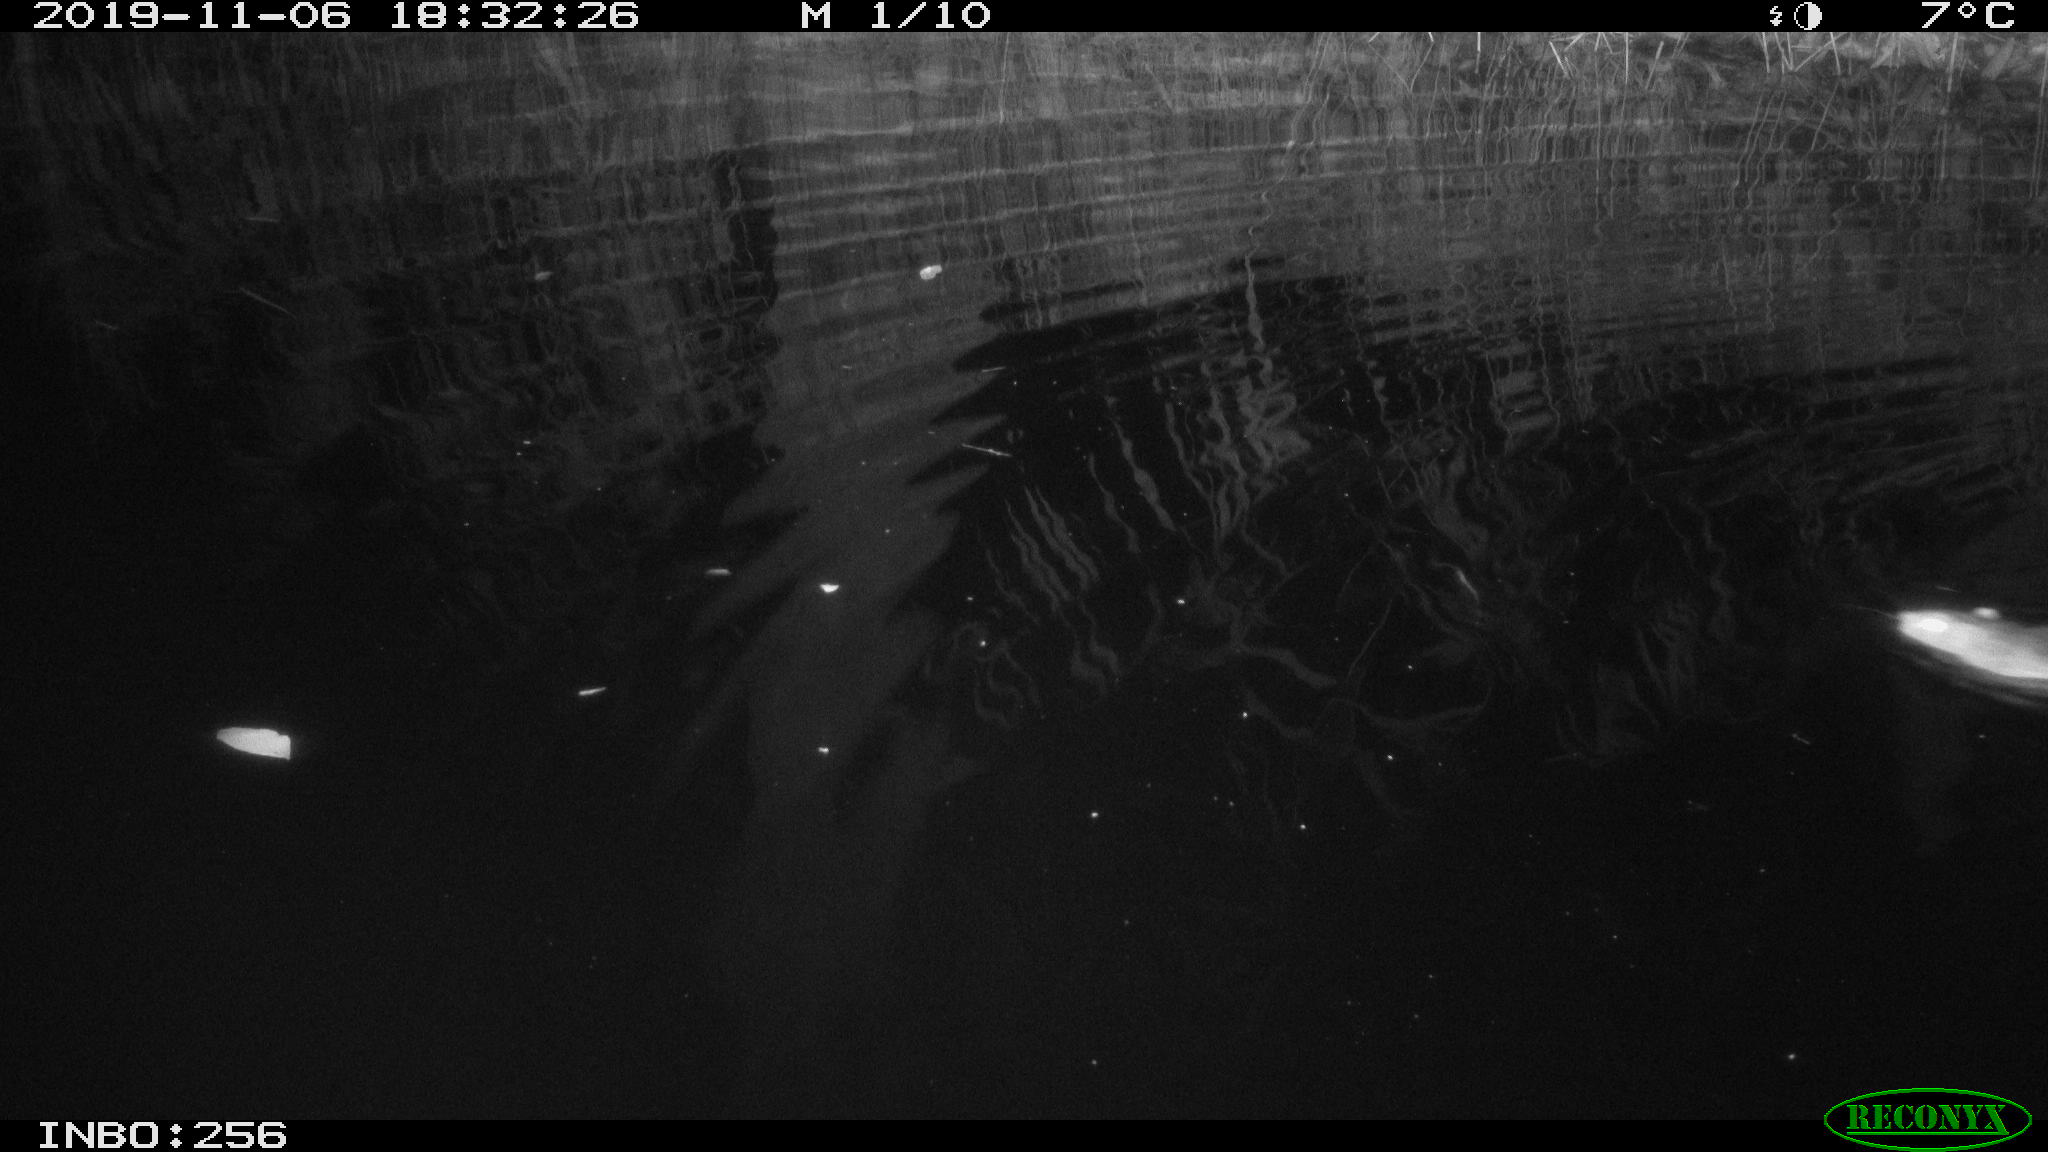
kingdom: Animalia
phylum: Chordata
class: Mammalia
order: Rodentia
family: Muridae
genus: Rattus
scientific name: Rattus norvegicus
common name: Brown rat
